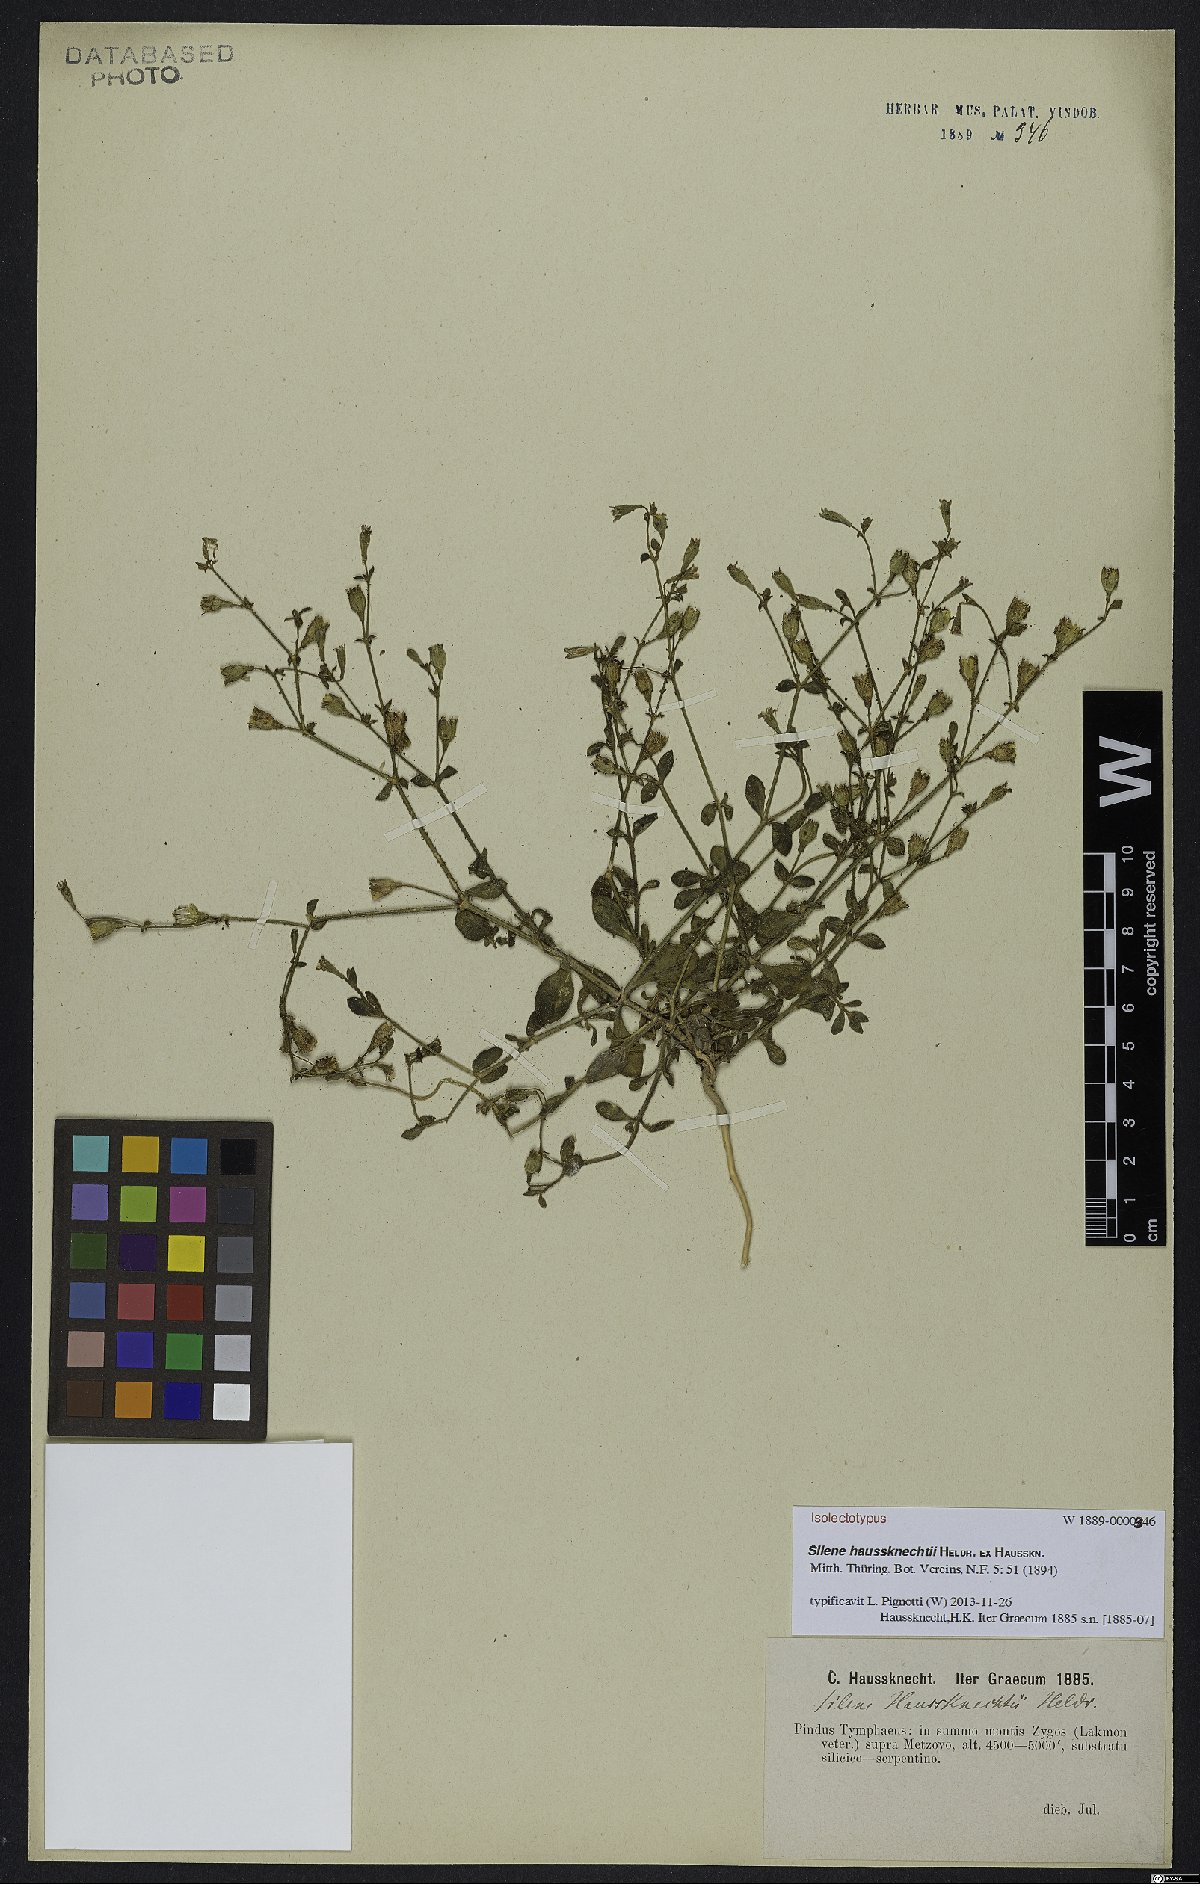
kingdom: Plantae
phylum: Tracheophyta
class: Magnoliopsida
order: Caryophyllales
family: Caryophyllaceae
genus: Silene
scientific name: Silene haussknechtii
